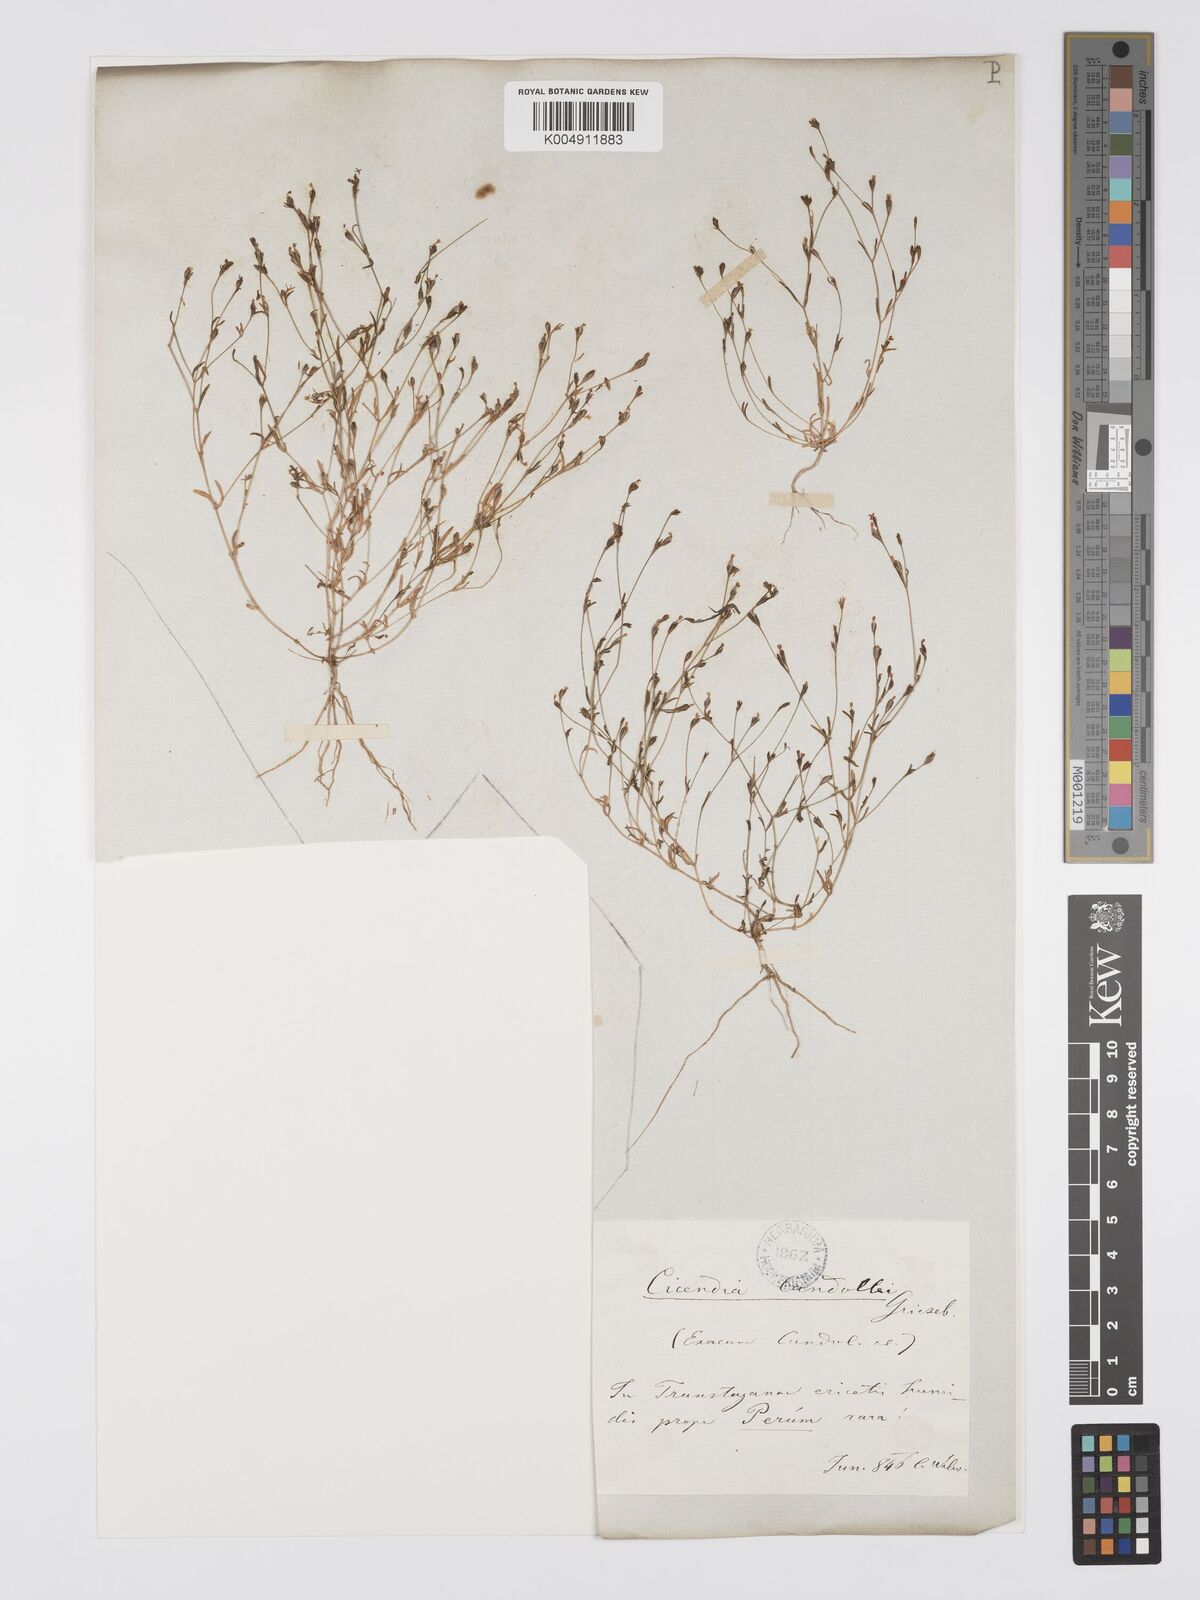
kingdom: Plantae
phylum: Tracheophyta
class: Magnoliopsida
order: Gentianales
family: Gentianaceae
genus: Exaculum
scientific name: Exaculum pusillum
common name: Guernsey centaury
